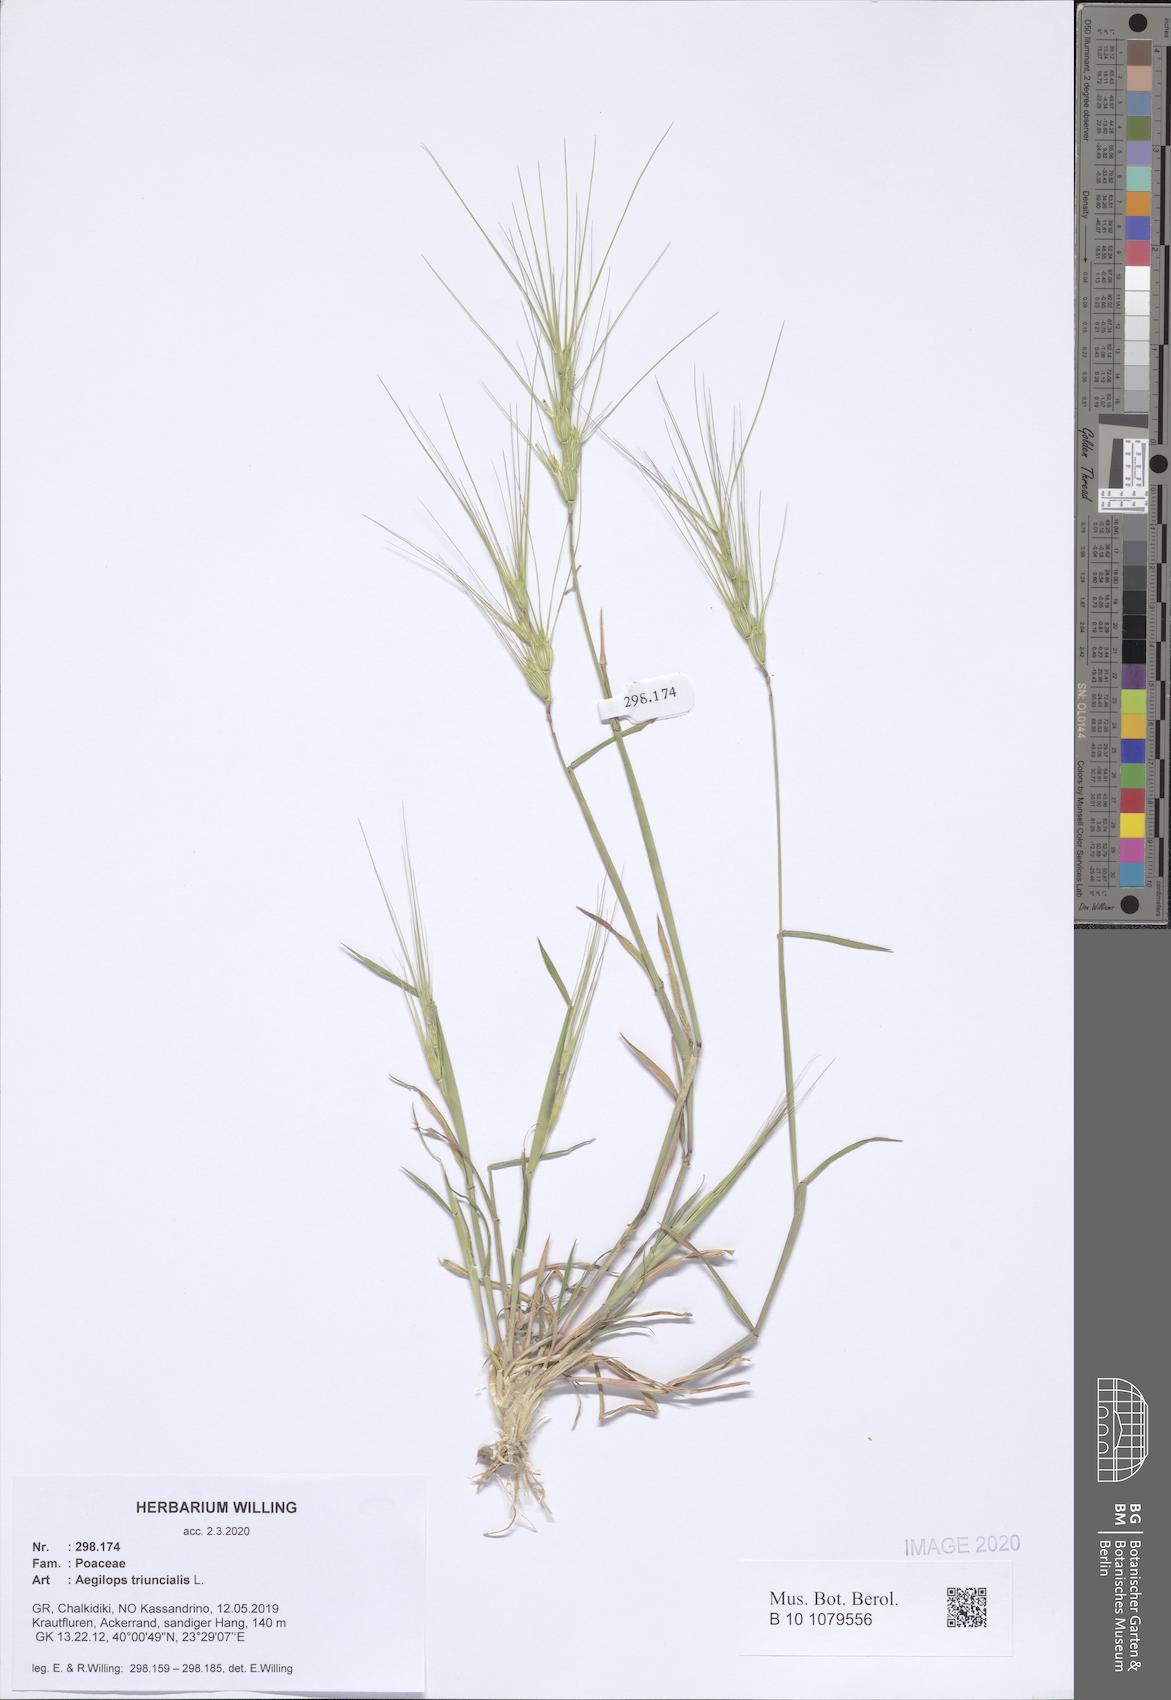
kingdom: Plantae
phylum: Tracheophyta
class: Liliopsida
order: Poales
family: Poaceae
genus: Aegilops
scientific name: Aegilops triuncialis
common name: Barb goat grass
